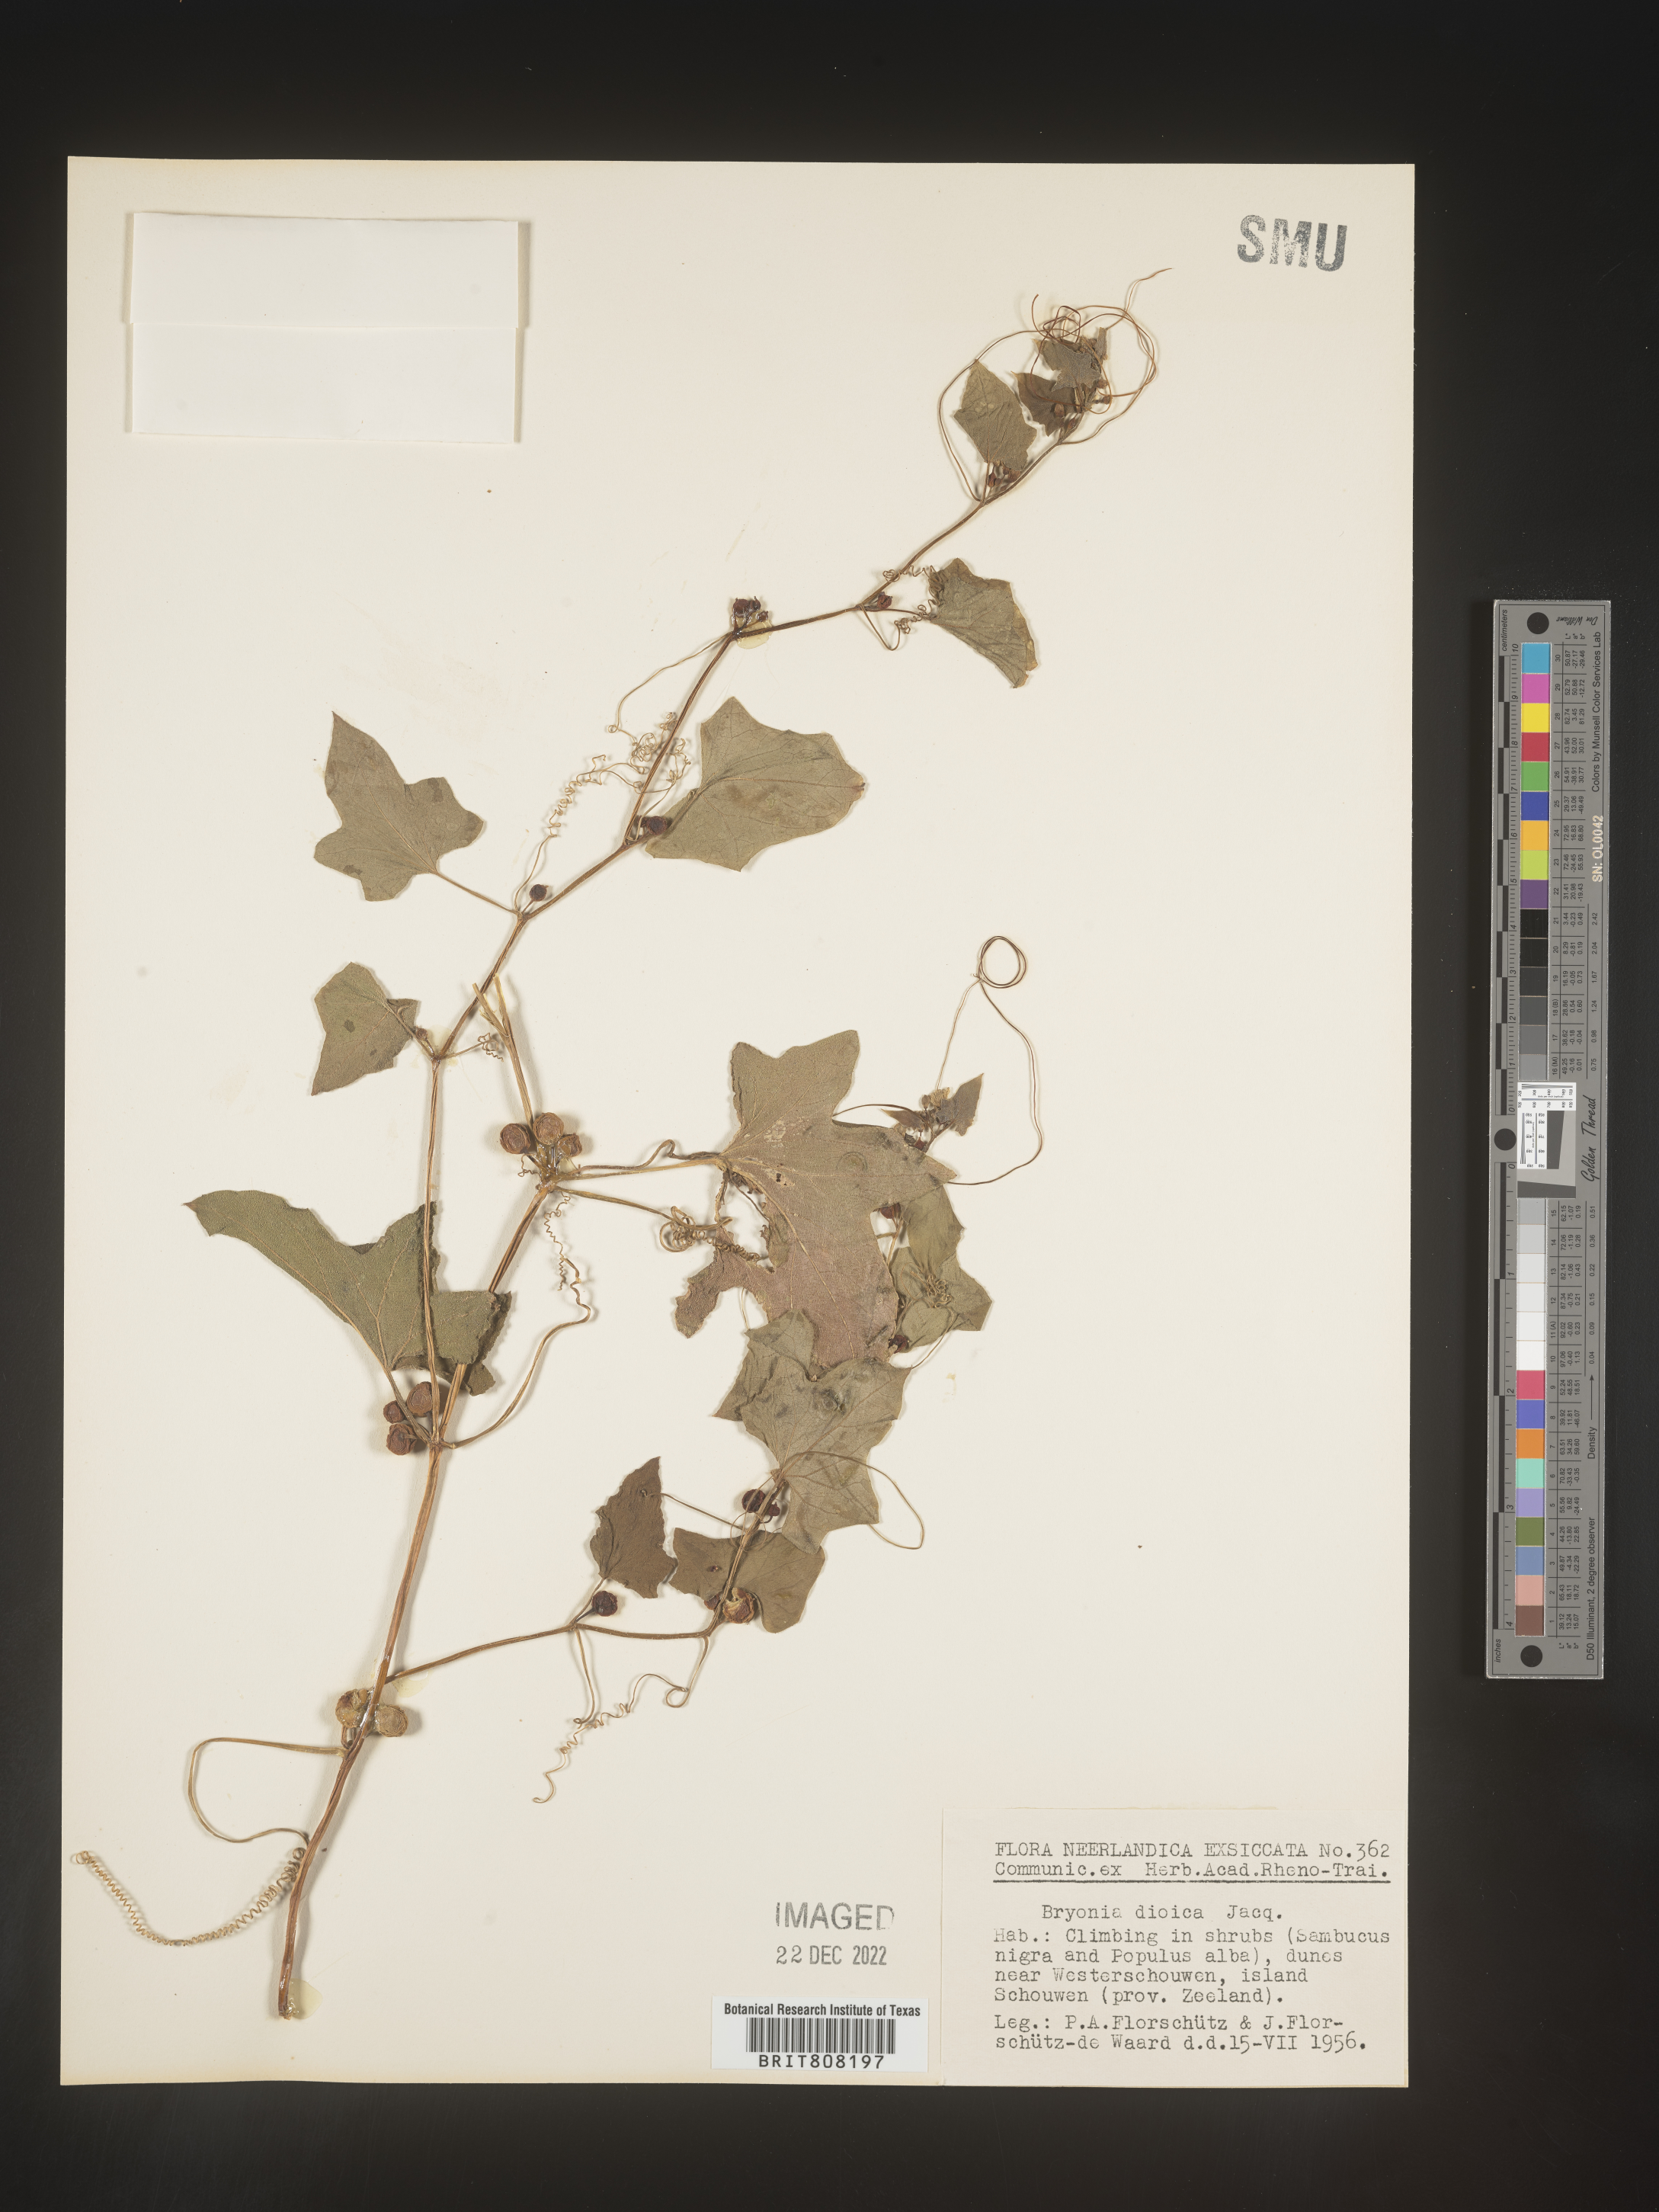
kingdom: Plantae
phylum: Tracheophyta
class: Magnoliopsida
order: Cucurbitales
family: Cucurbitaceae
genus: Bryonia
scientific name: Bryonia
